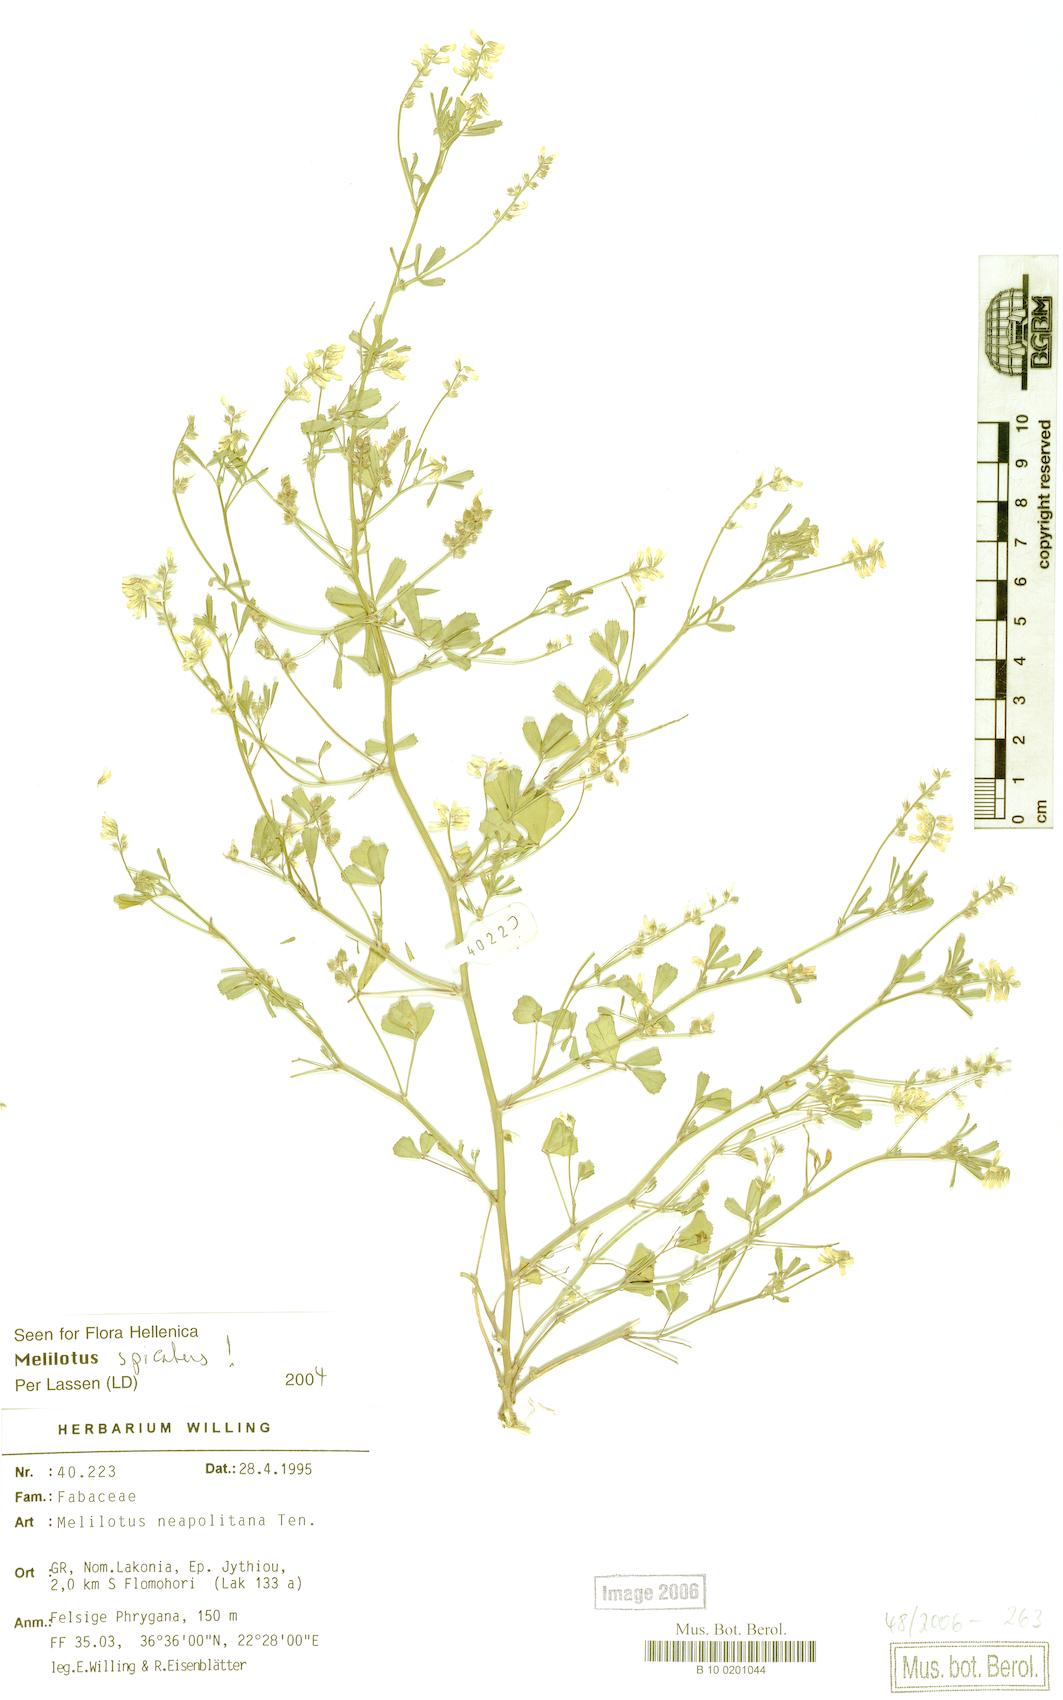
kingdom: Plantae
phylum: Tracheophyta
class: Magnoliopsida
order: Fabales
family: Fabaceae
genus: Melilotus
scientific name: Melilotus neapolitanus
